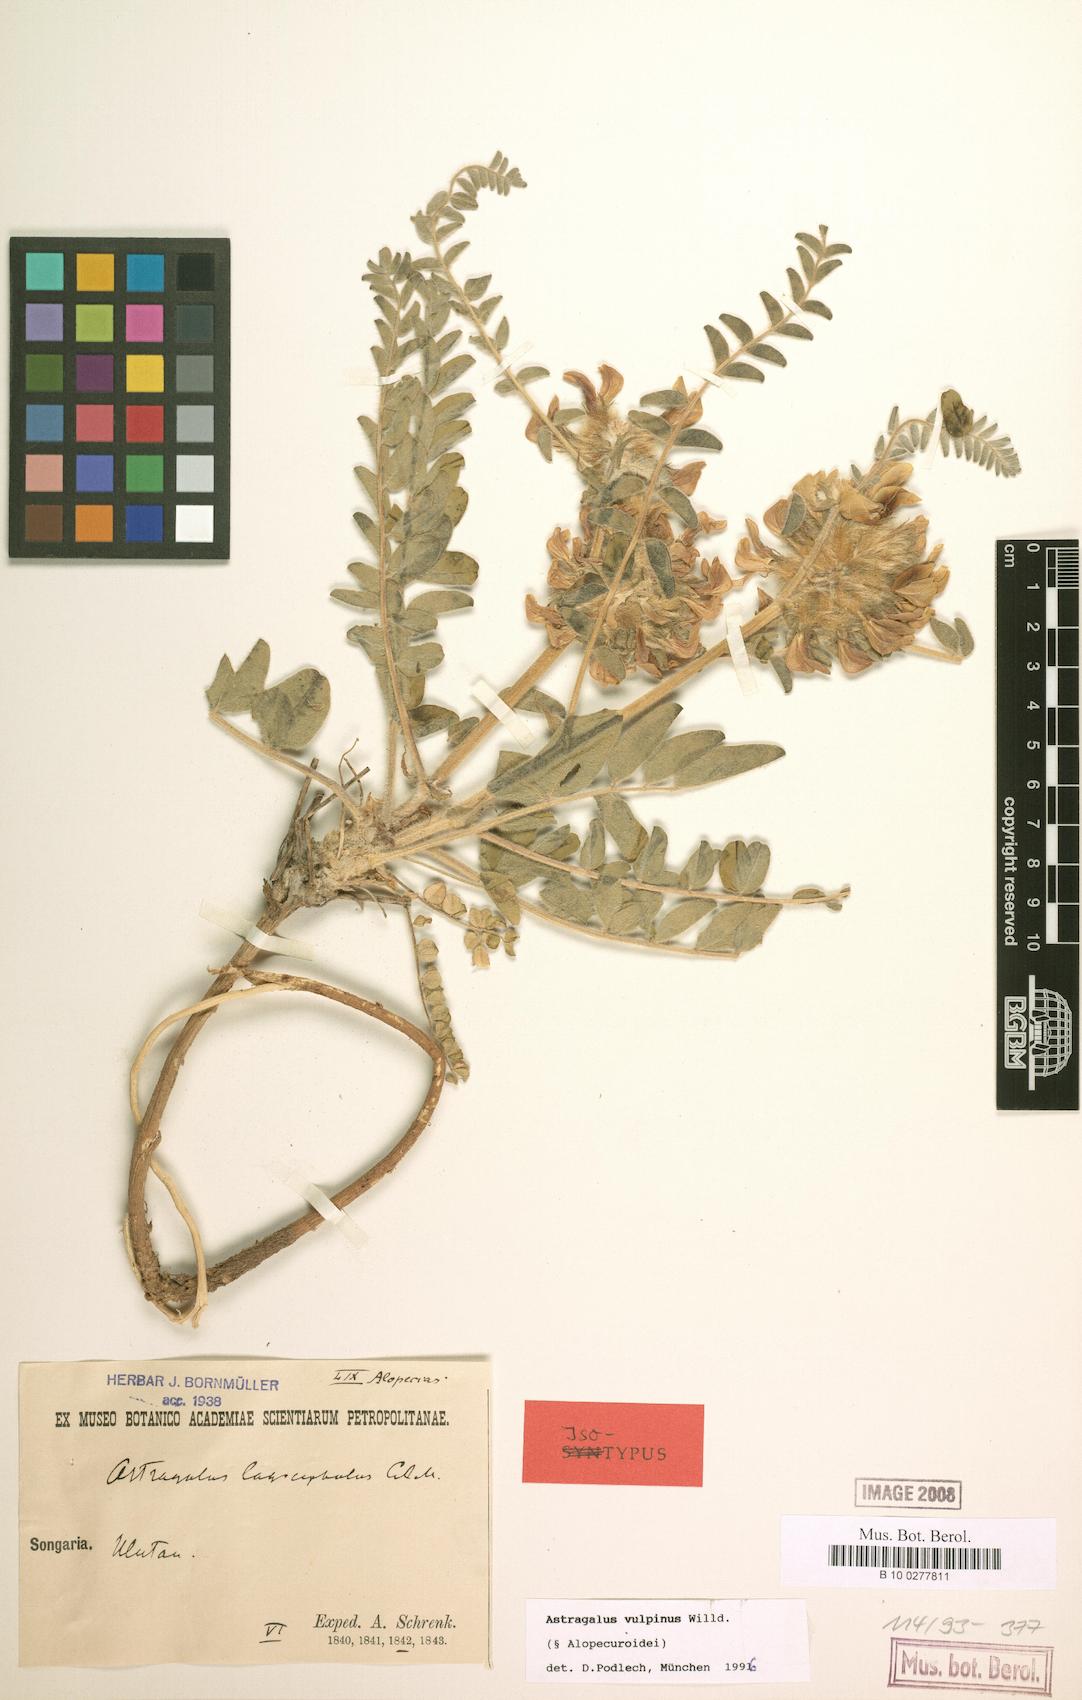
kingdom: Plantae
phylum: Tracheophyta
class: Magnoliopsida
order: Fabales
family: Fabaceae
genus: Astragalus
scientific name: Astragalus vulpinus
